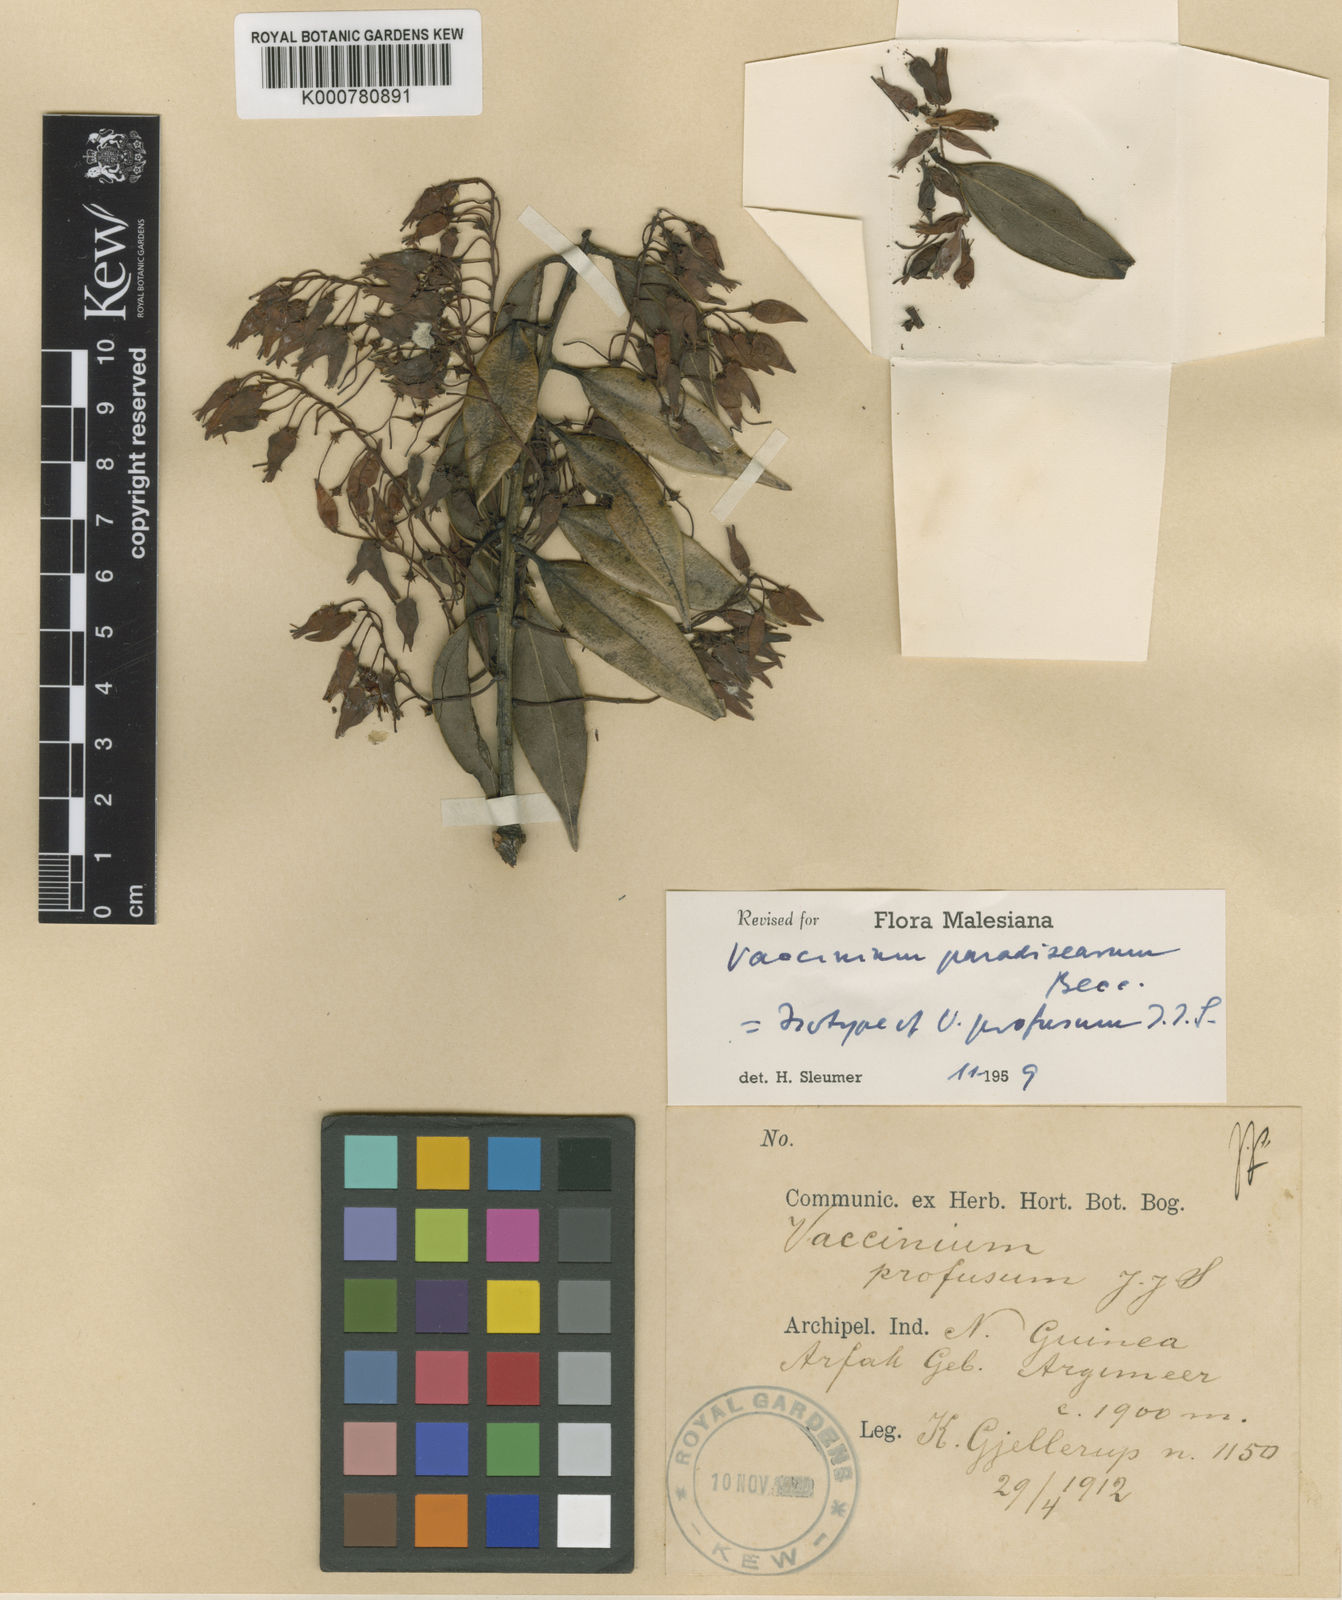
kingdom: Plantae
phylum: Tracheophyta
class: Magnoliopsida
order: Ericales
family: Ericaceae
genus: Vaccinium
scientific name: Vaccinium paradisearum
